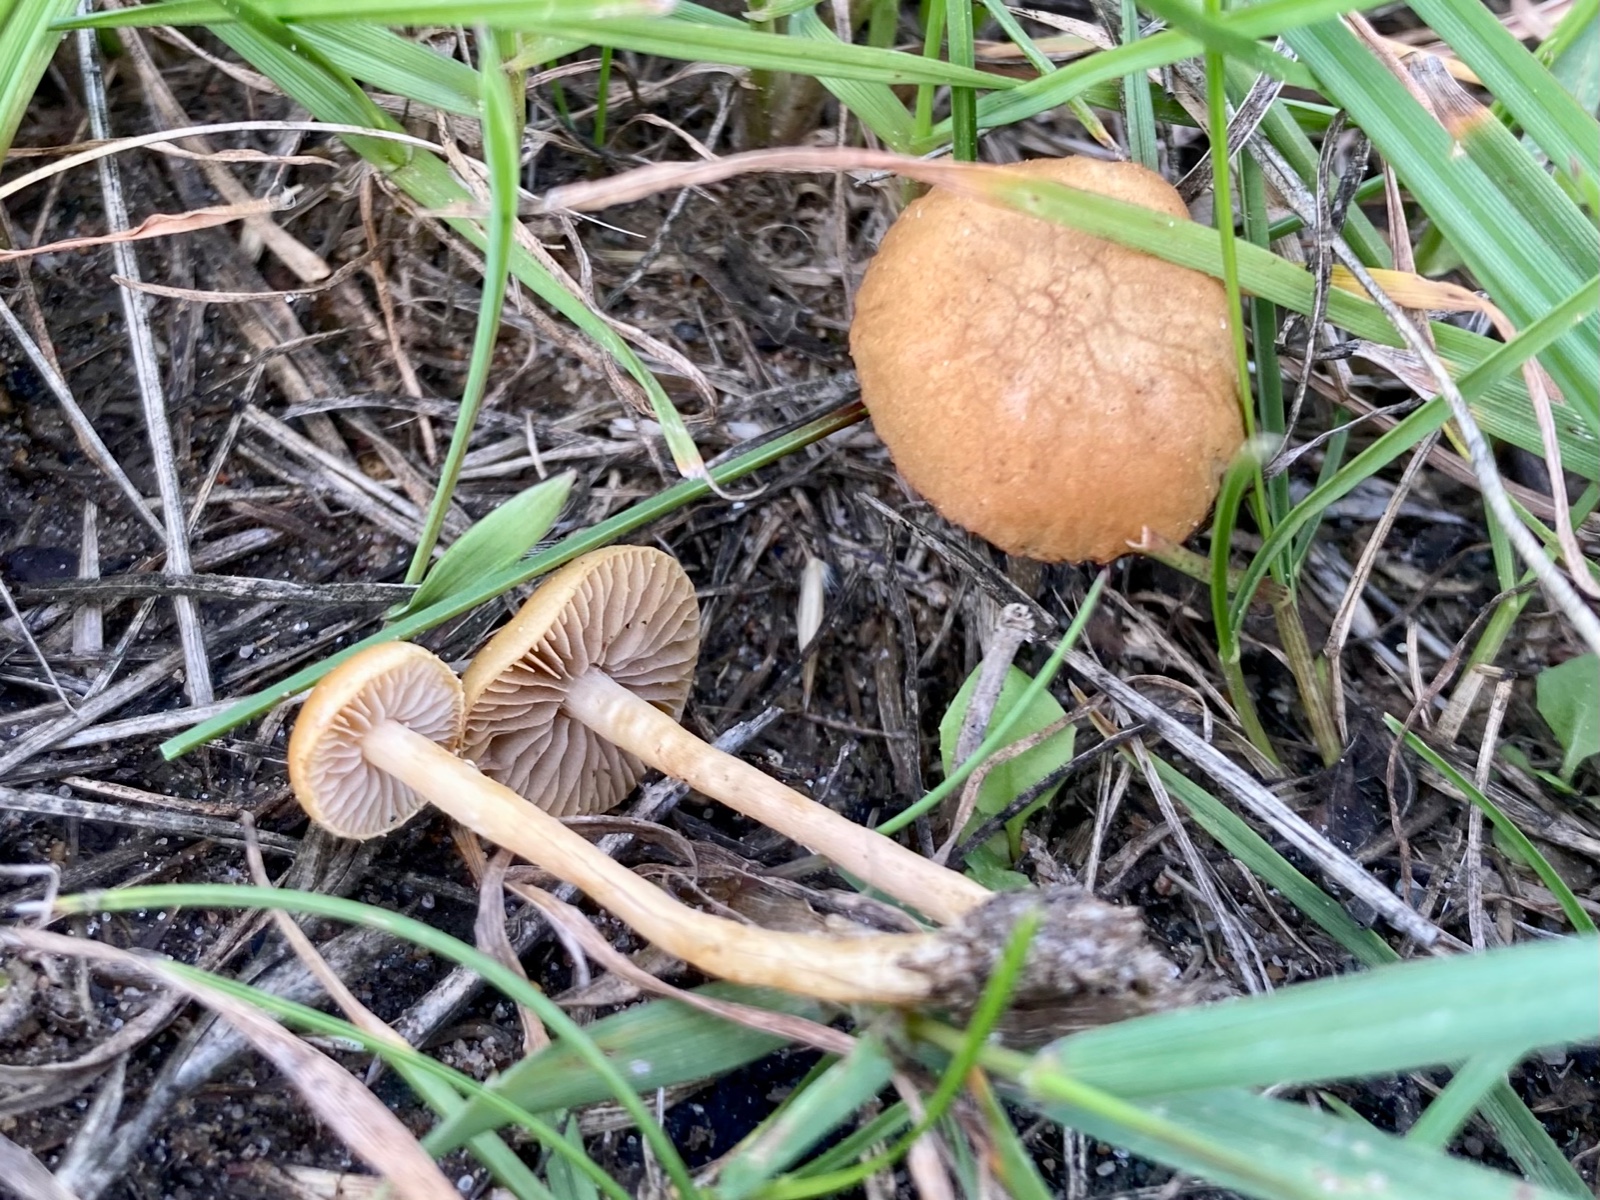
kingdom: Fungi
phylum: Basidiomycota
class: Agaricomycetes
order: Agaricales
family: Marasmiaceae
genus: Marasmius
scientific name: Marasmius oreades
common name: elledans-bruskhat
